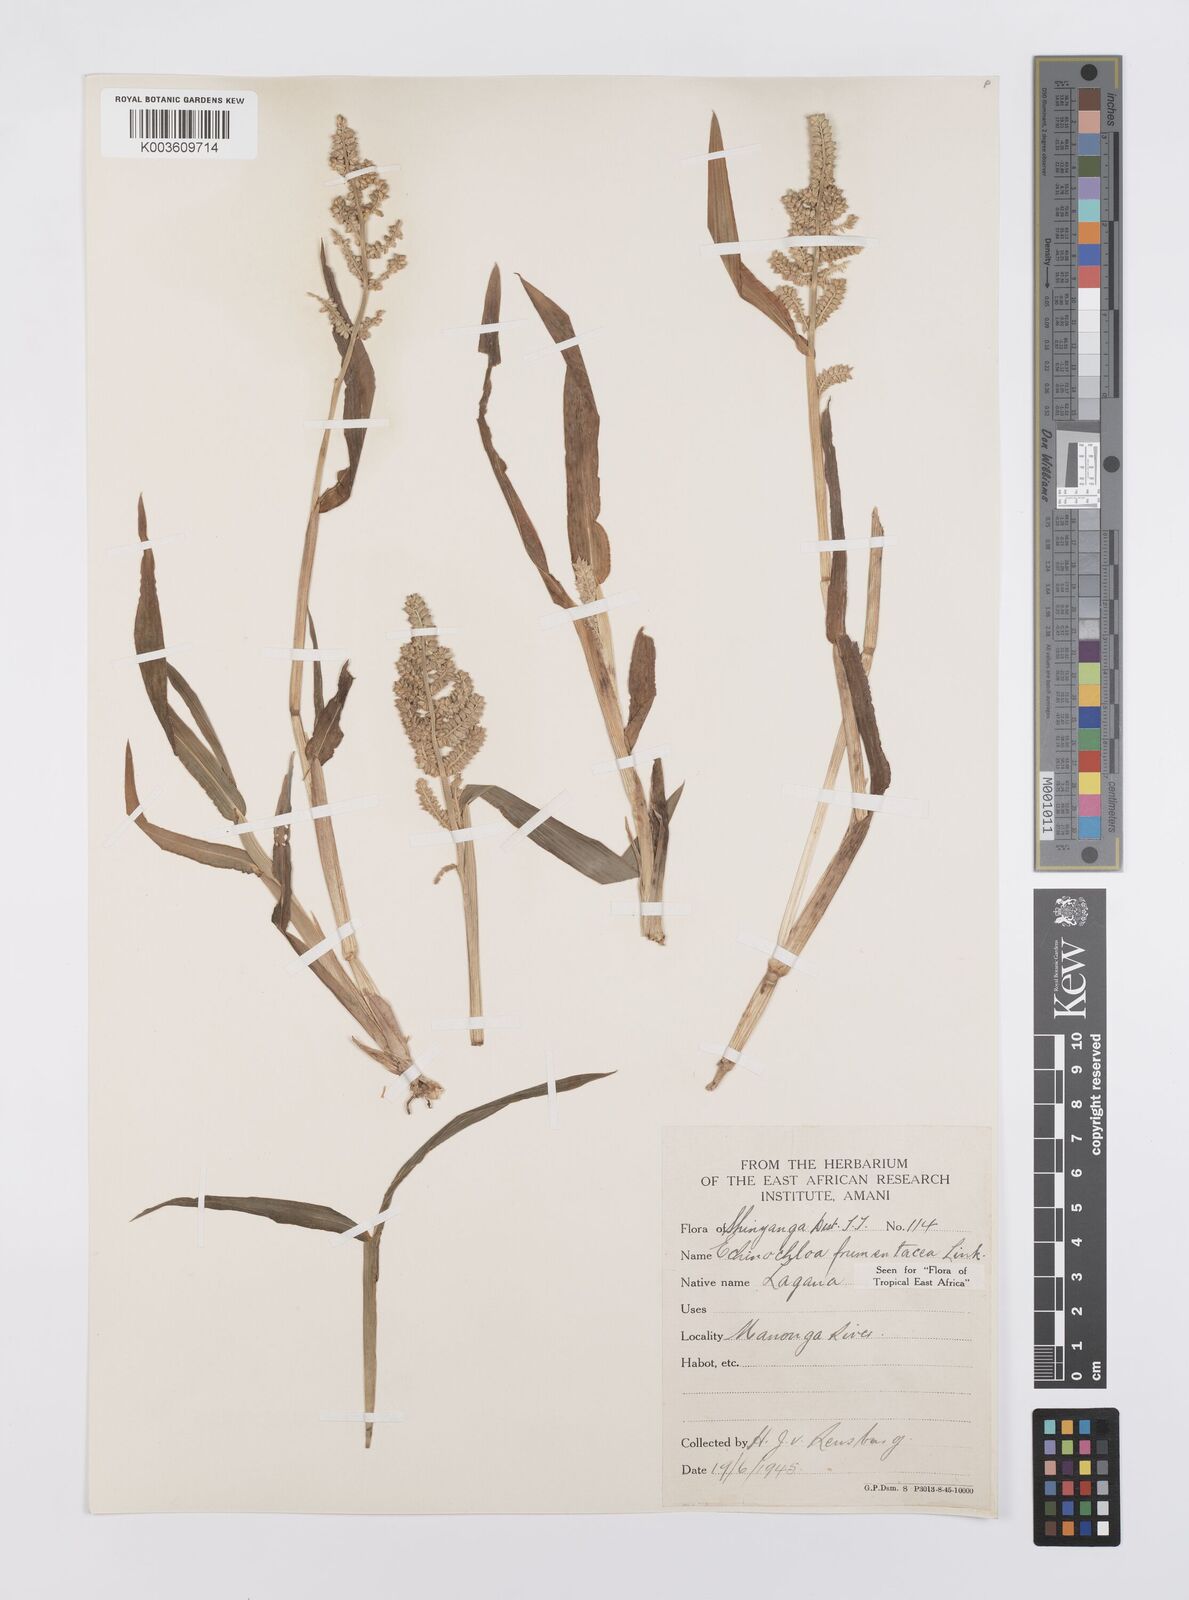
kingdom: Plantae
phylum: Tracheophyta
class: Liliopsida
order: Poales
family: Poaceae
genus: Echinochloa
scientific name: Echinochloa frumentacea
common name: Billion-dollar grass
